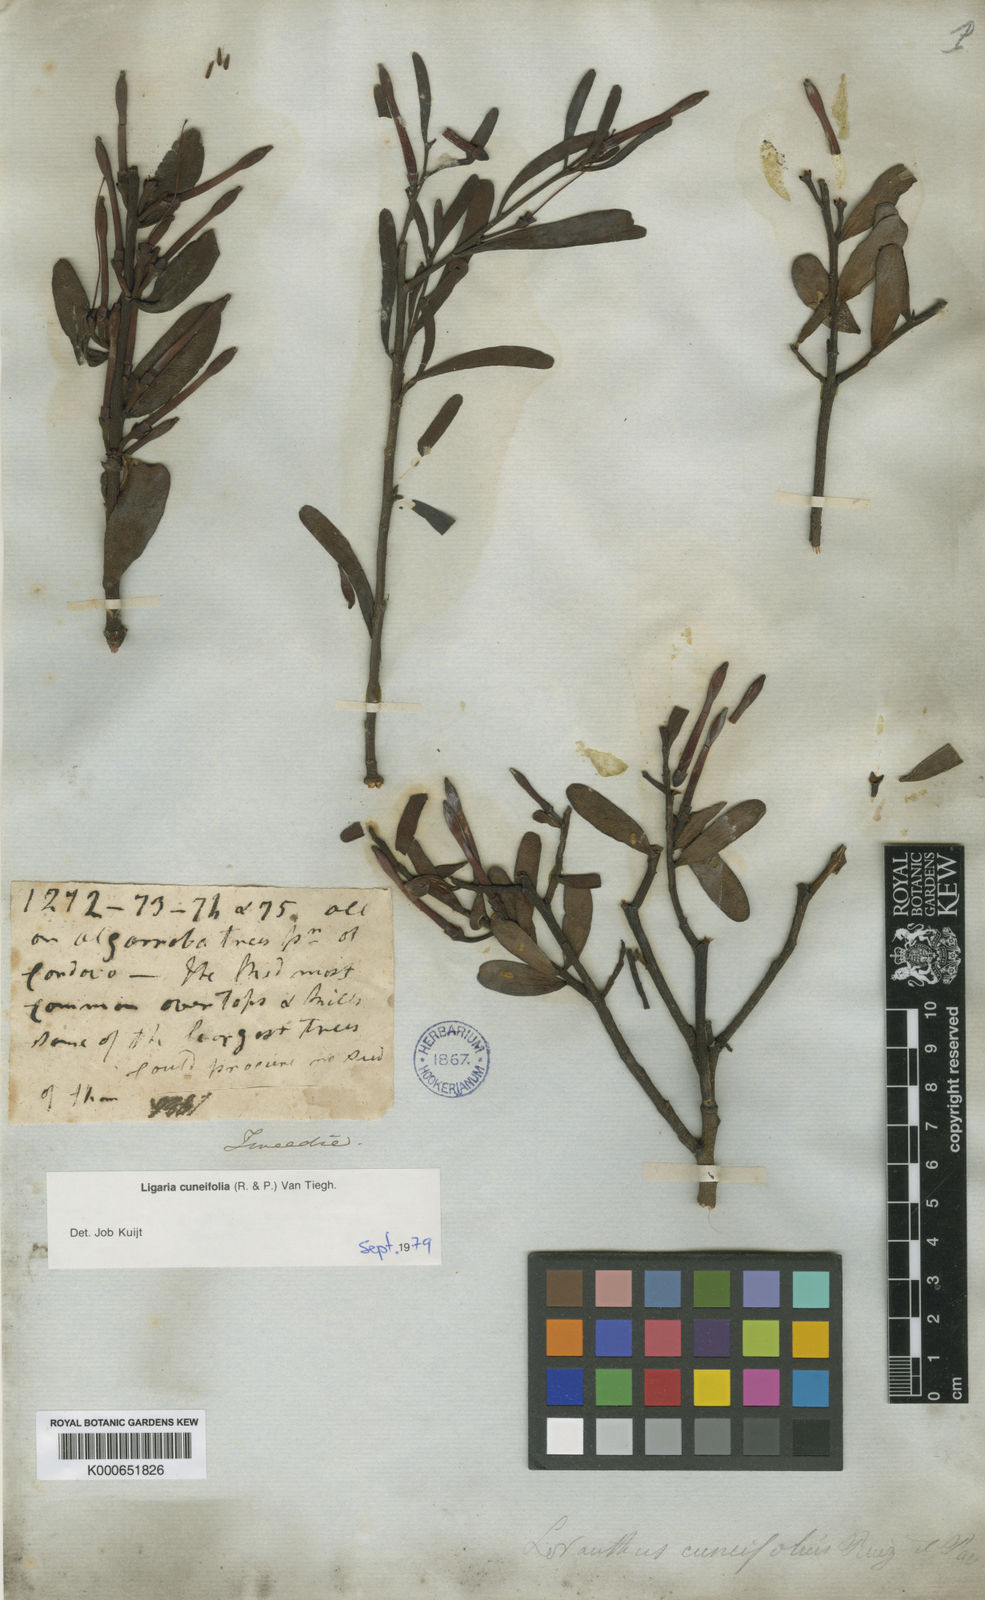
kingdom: Plantae
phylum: Tracheophyta
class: Magnoliopsida
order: Santalales
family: Loranthaceae
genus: Ligaria
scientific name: Ligaria cuneifolia
